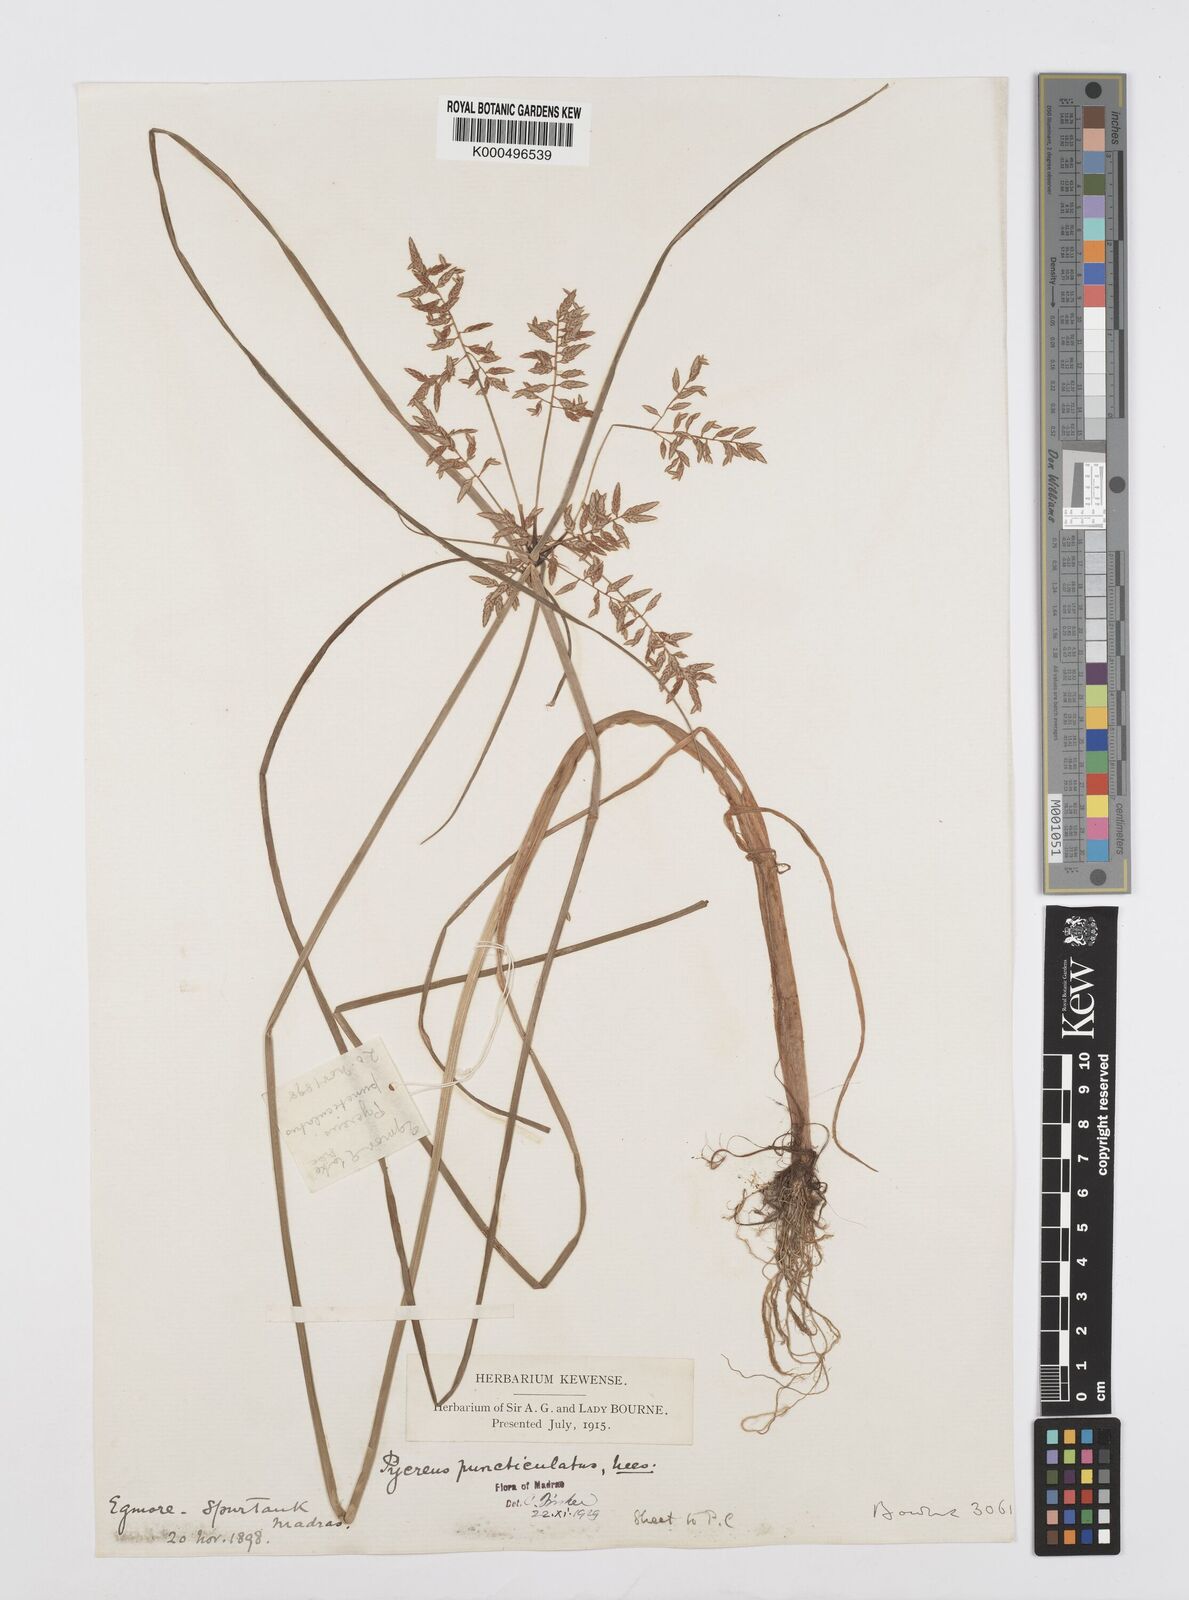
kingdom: Plantae
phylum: Tracheophyta
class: Liliopsida
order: Poales
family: Cyperaceae
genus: Cyperus
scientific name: Cyperus puncticulatus
